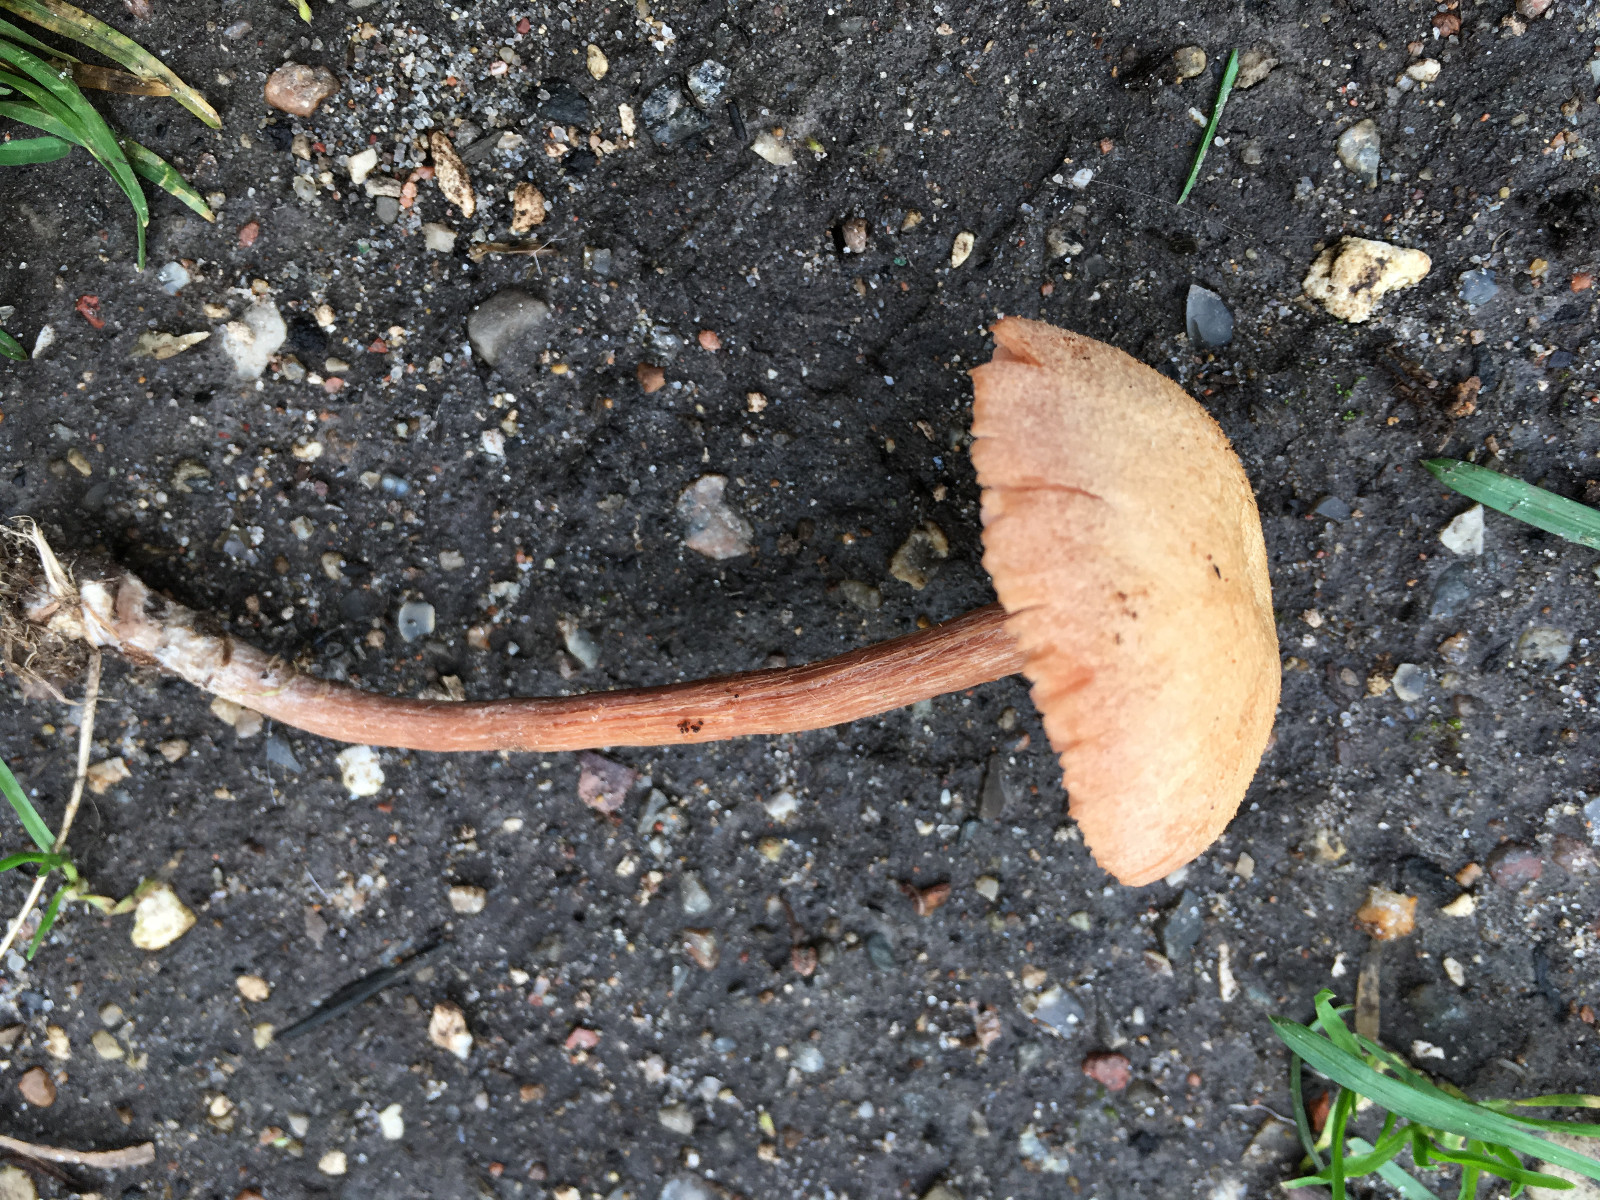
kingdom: Fungi
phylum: Basidiomycota
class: Agaricomycetes
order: Agaricales
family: Hydnangiaceae
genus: Laccaria
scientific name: Laccaria proxima
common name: stor ametysthat
